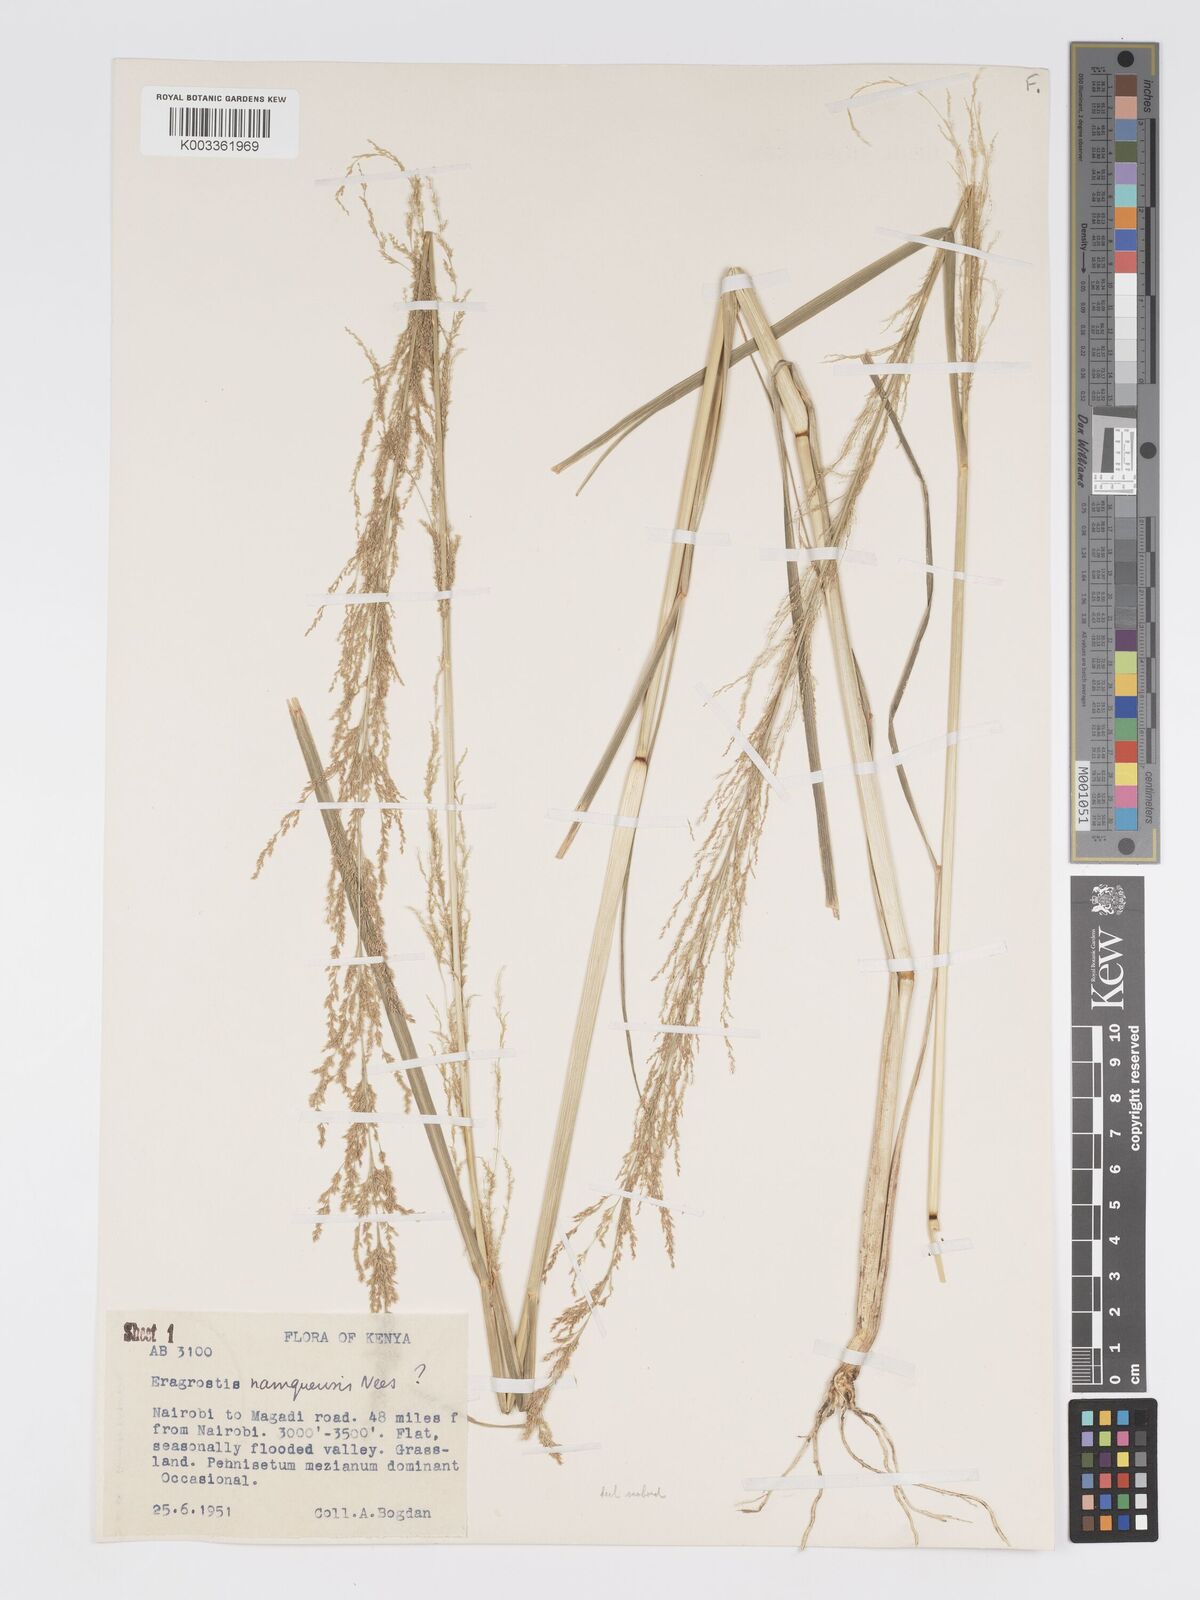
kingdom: Plantae
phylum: Tracheophyta
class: Liliopsida
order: Poales
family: Poaceae
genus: Eragrostis
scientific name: Eragrostis japonica
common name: Pond lovegrass
